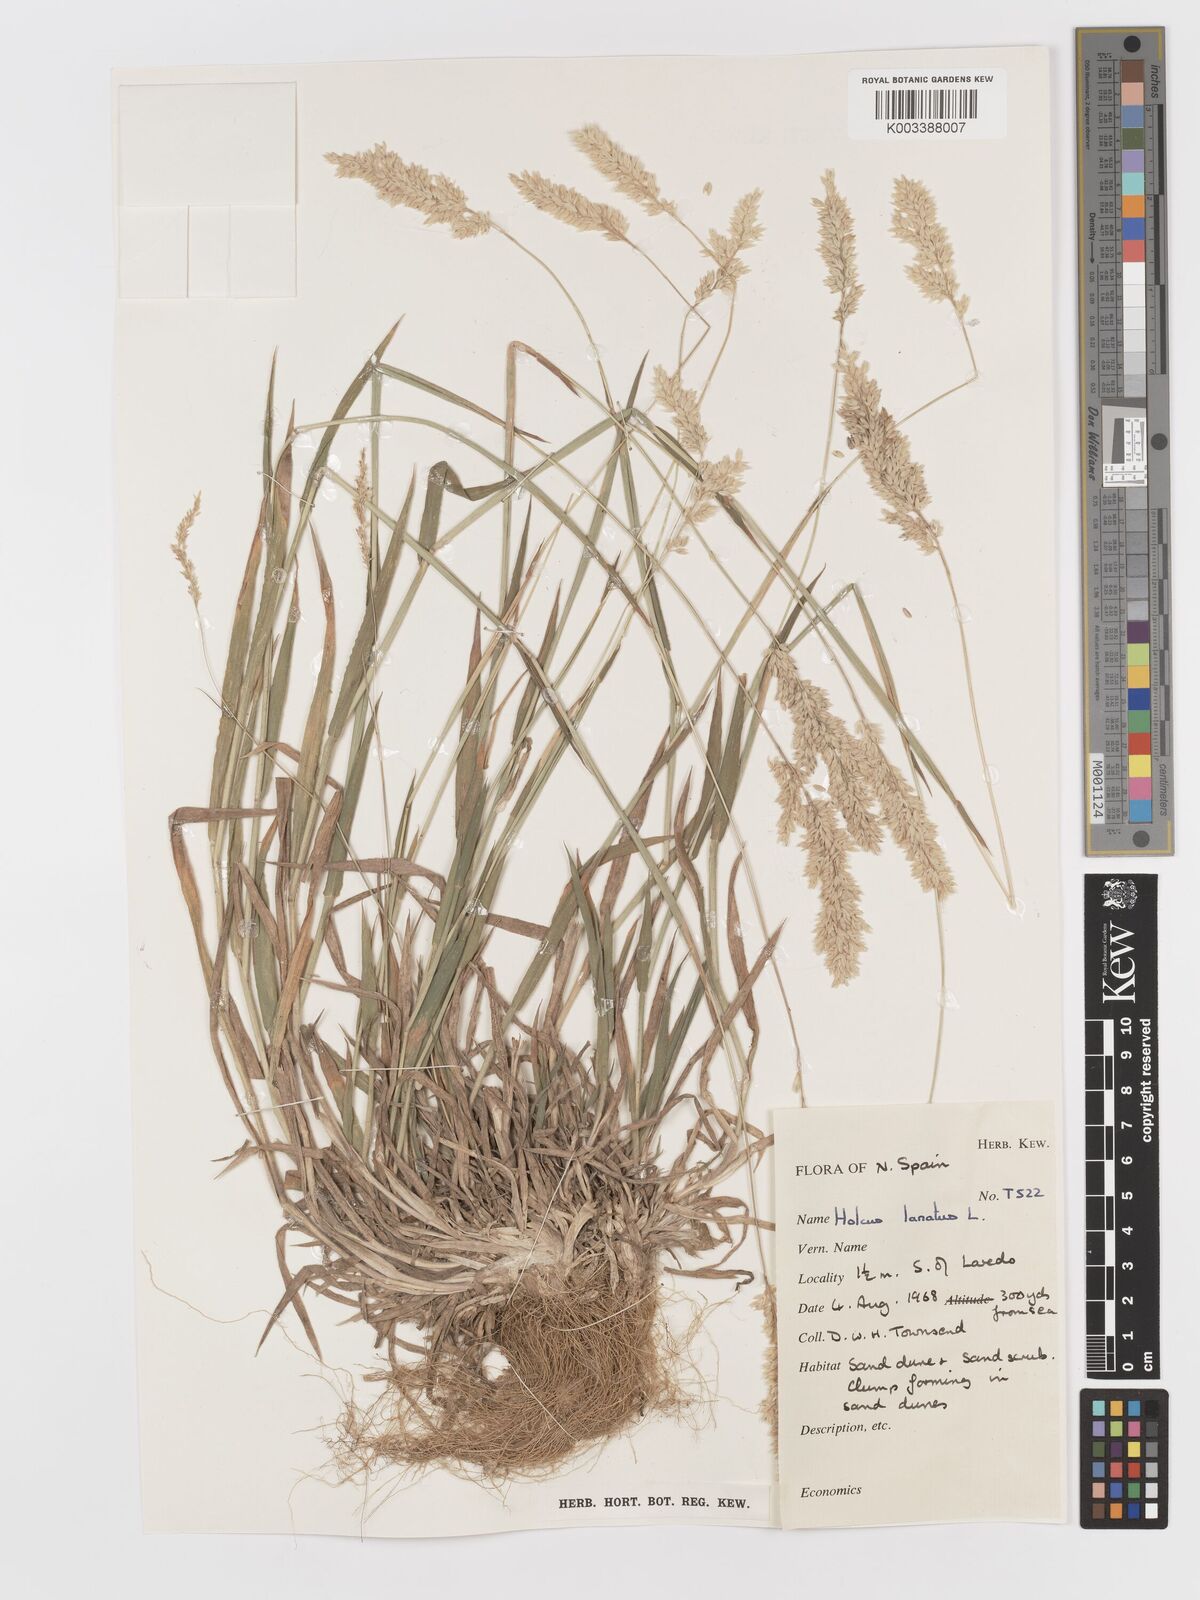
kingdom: Plantae
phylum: Tracheophyta
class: Liliopsida
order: Poales
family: Poaceae
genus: Holcus
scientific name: Holcus lanatus
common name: Yorkshire-fog
